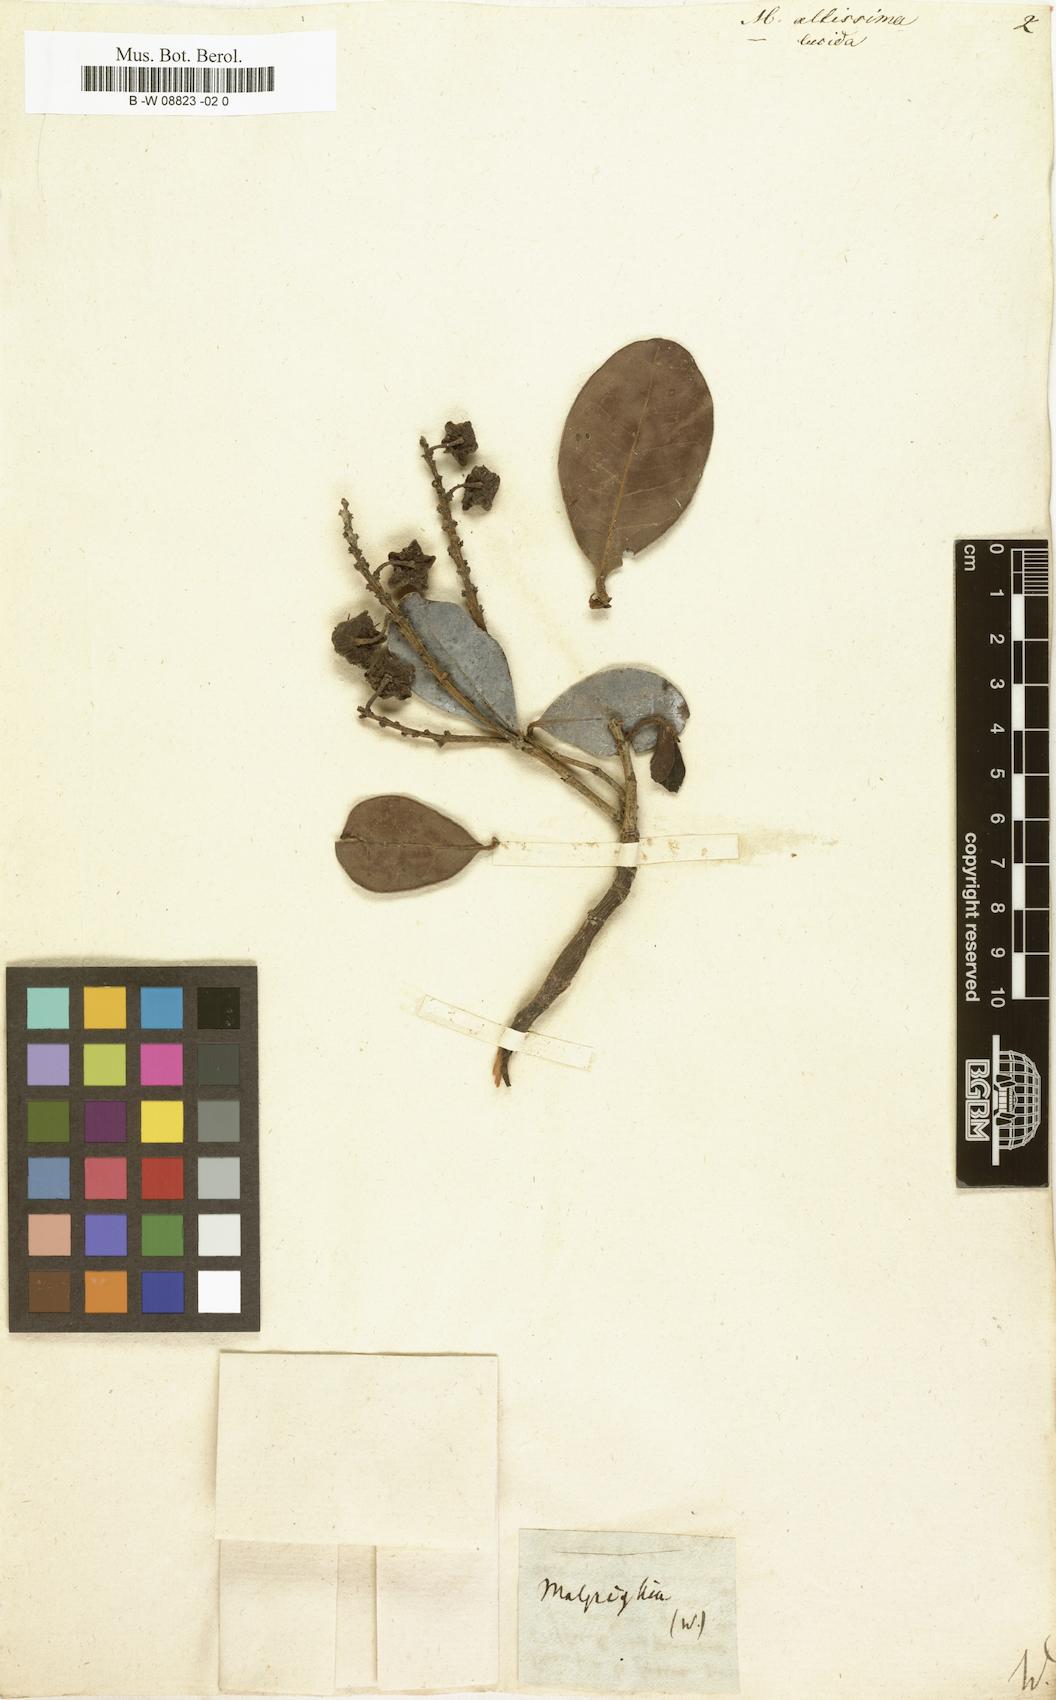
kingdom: Plantae
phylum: Tracheophyta
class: Magnoliopsida
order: Malpighiales
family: Malpighiaceae
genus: Byrsonima
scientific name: Byrsonima
